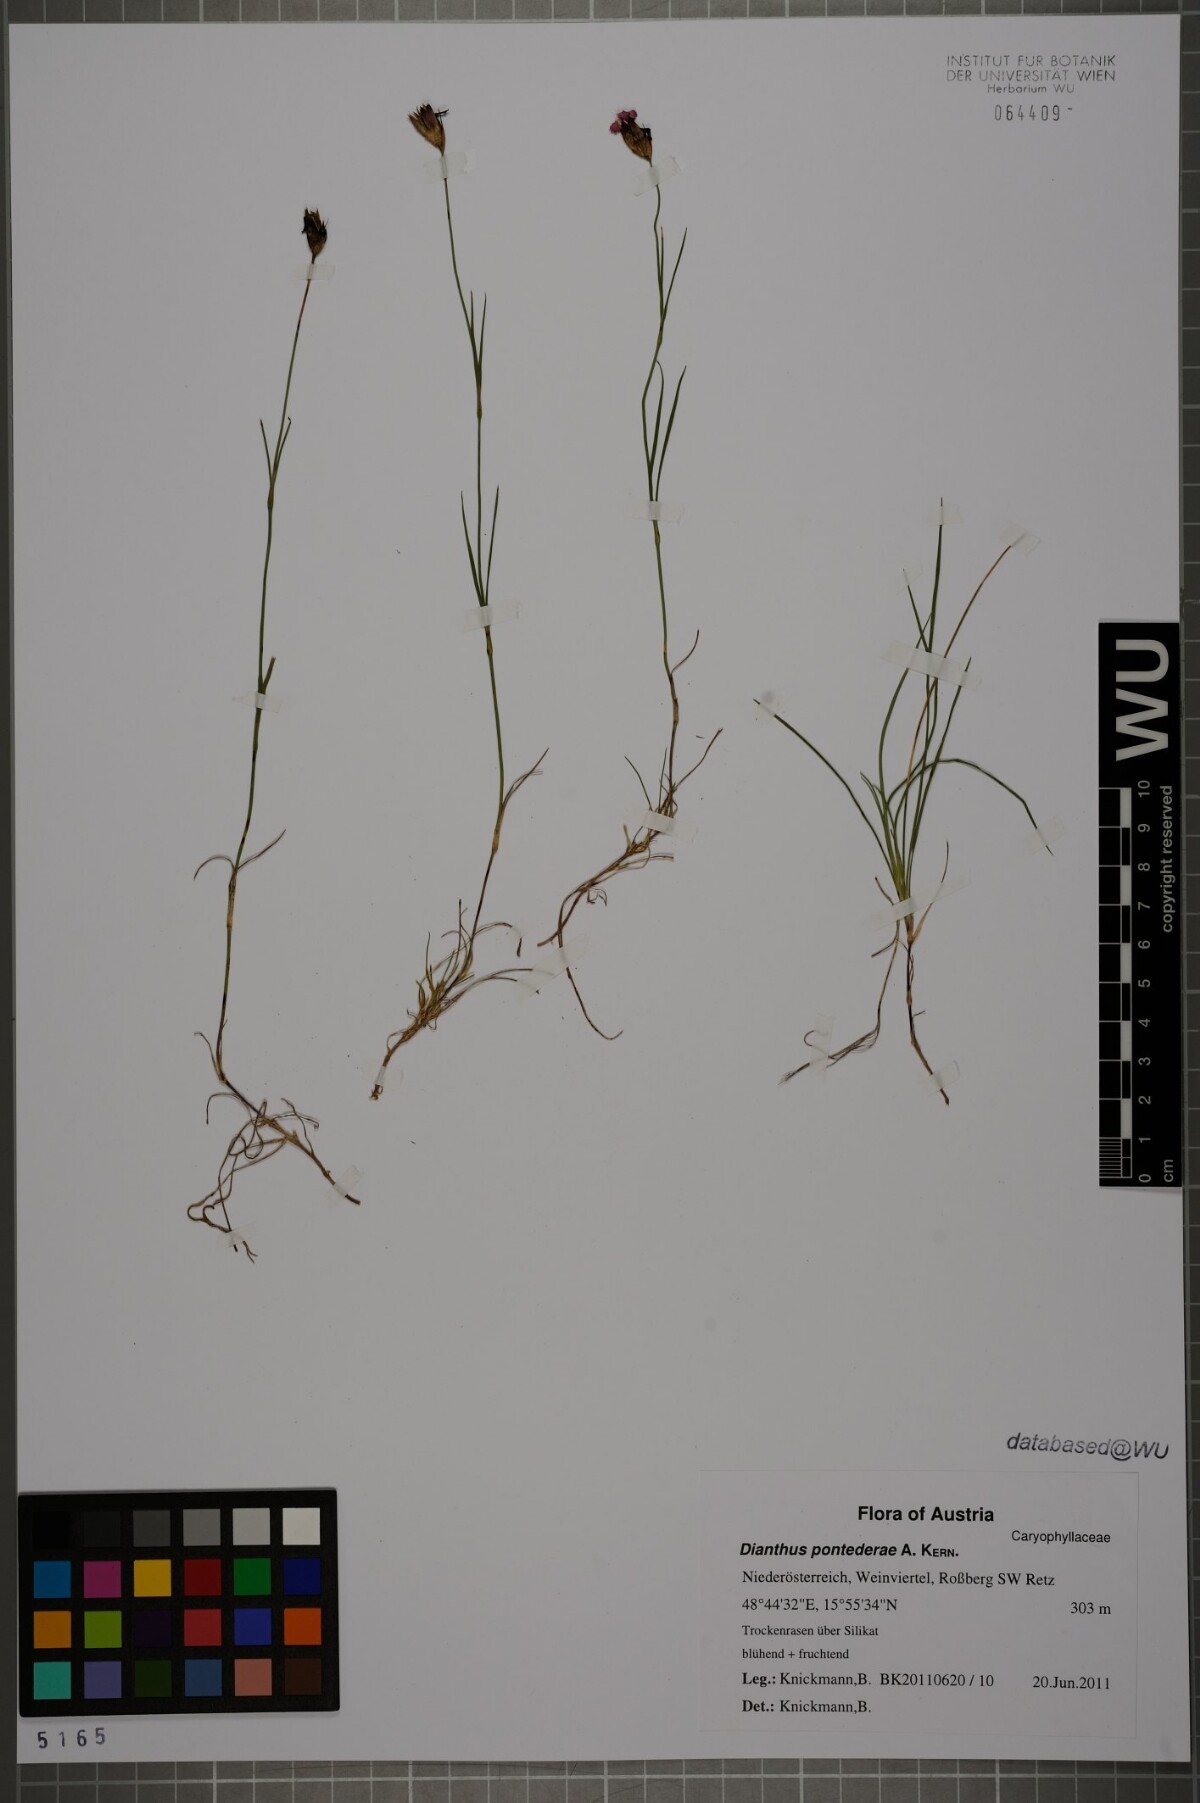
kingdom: Plantae
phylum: Tracheophyta
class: Magnoliopsida
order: Caryophyllales
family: Caryophyllaceae
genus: Dianthus
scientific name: Dianthus pontederae
